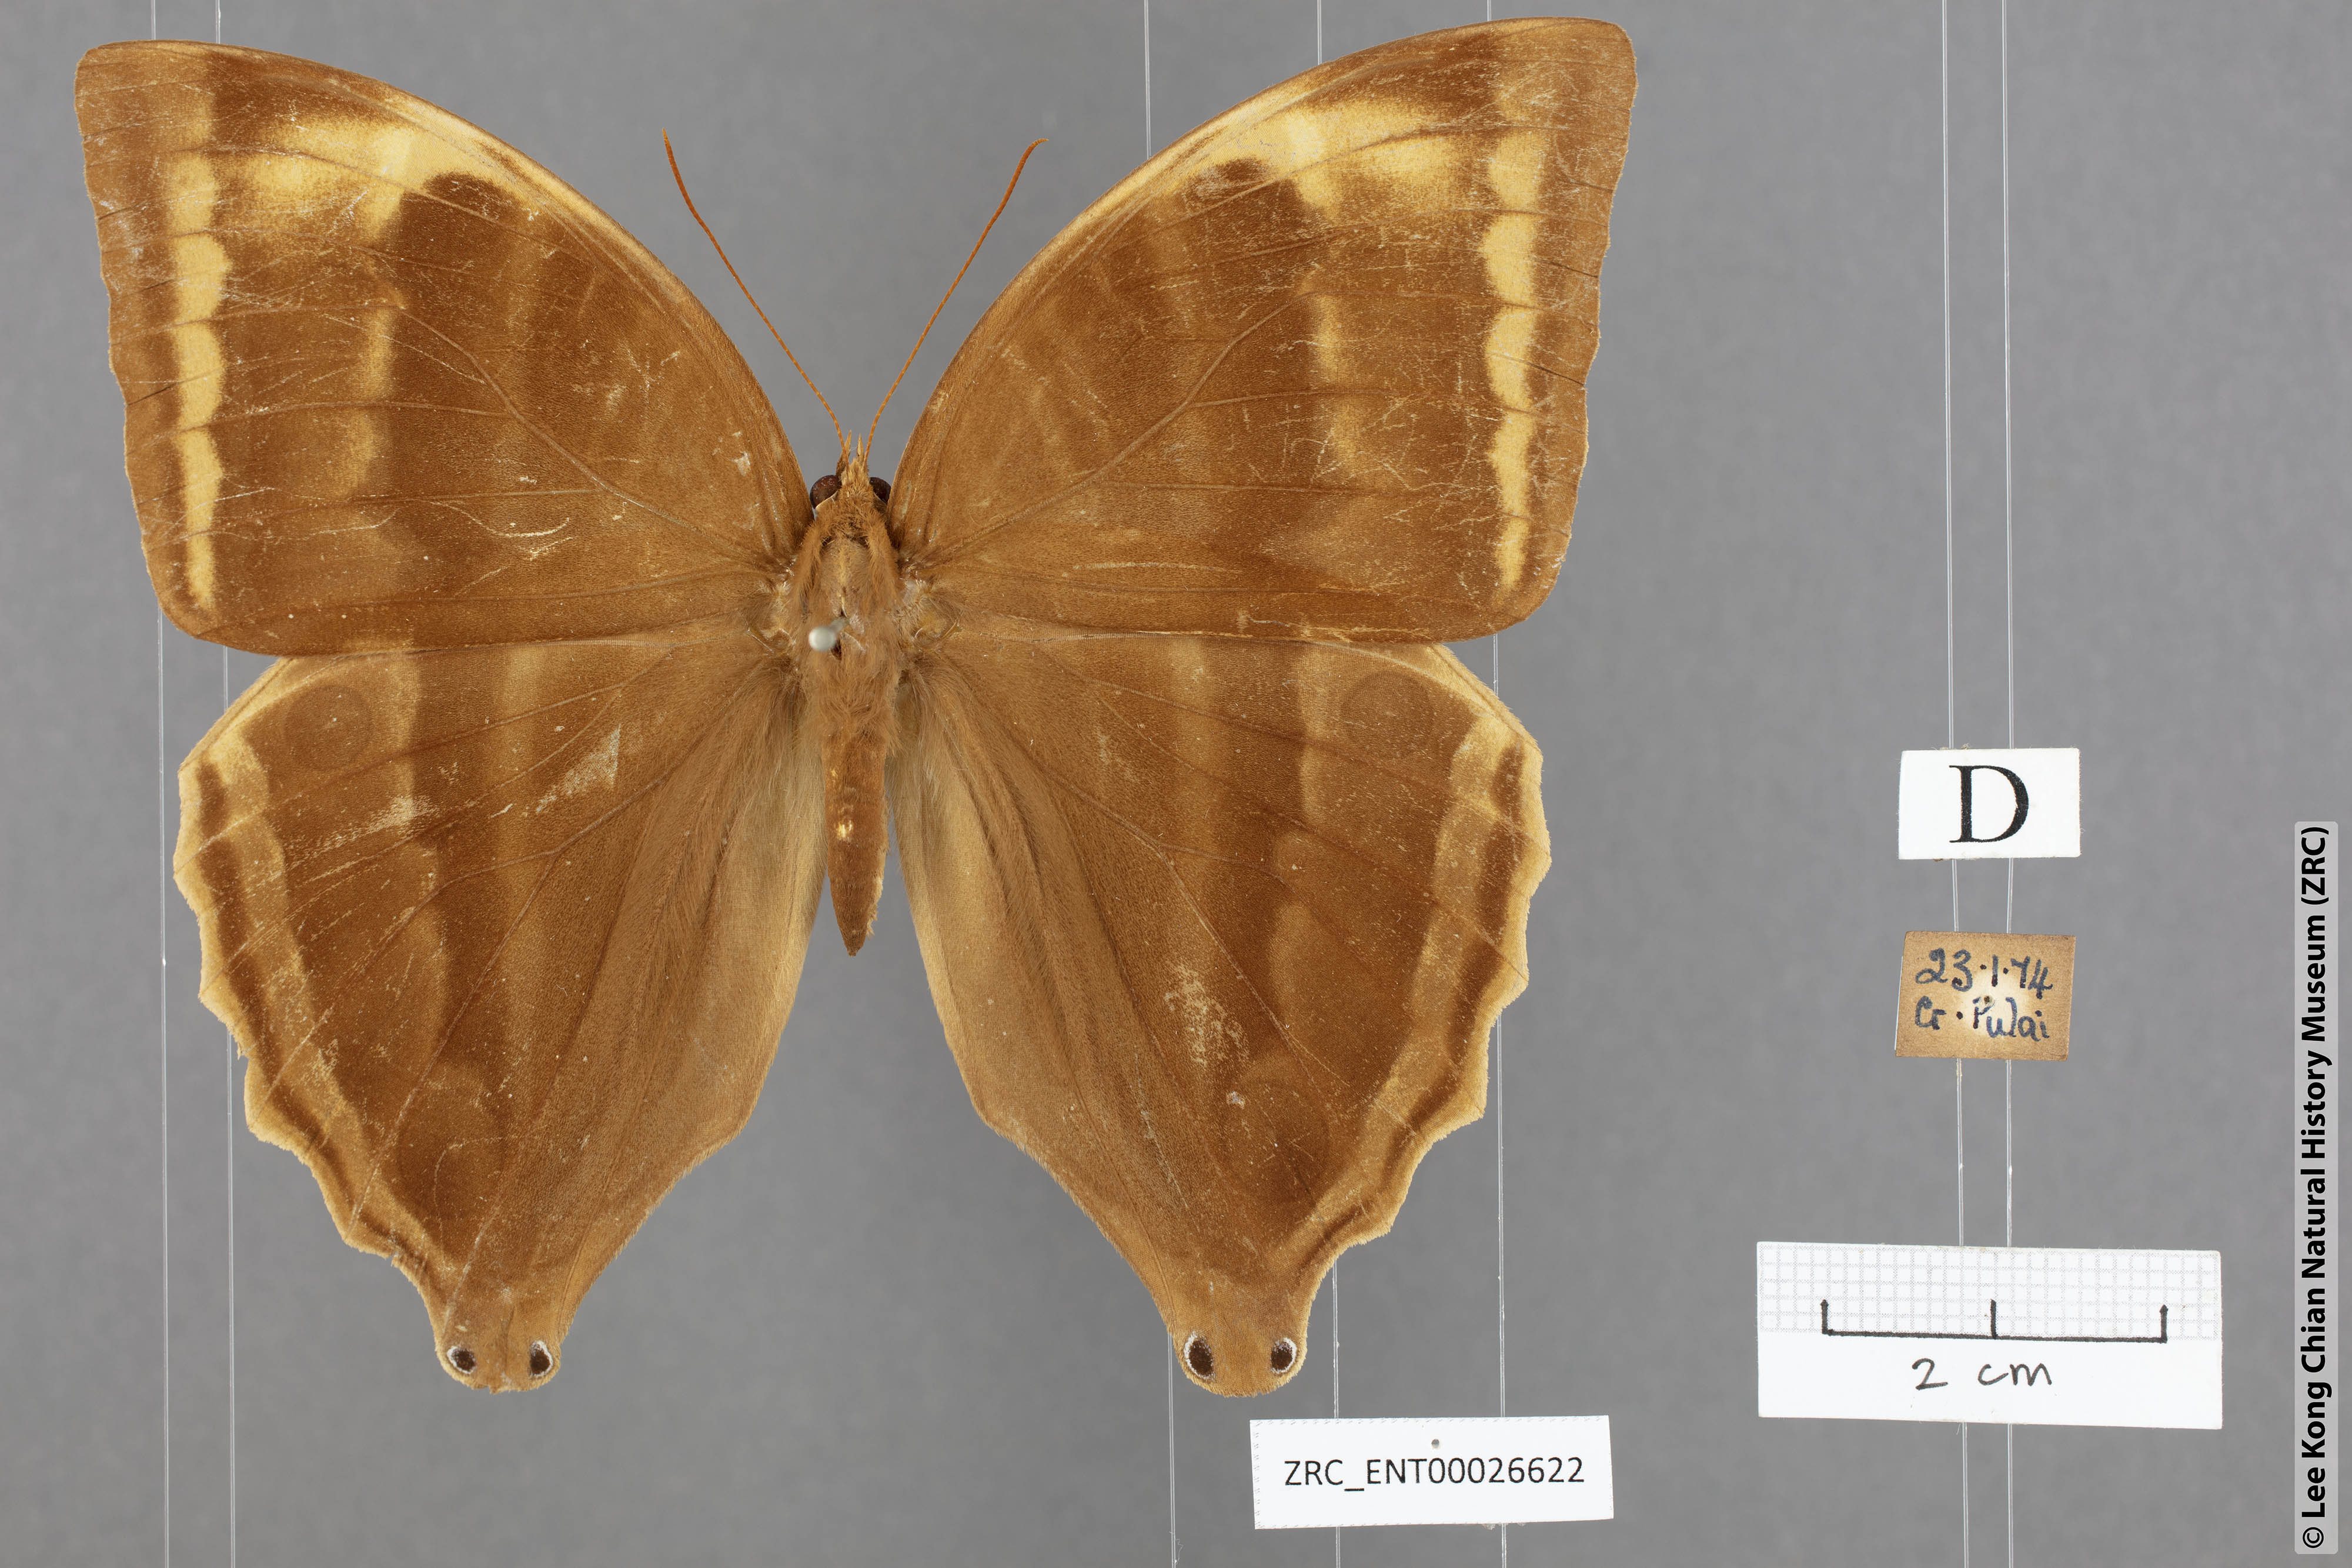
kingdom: Animalia
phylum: Arthropoda
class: Insecta
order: Lepidoptera
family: Nymphalidae
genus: Amathusia
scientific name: Amathusia phidippus
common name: Palm king
